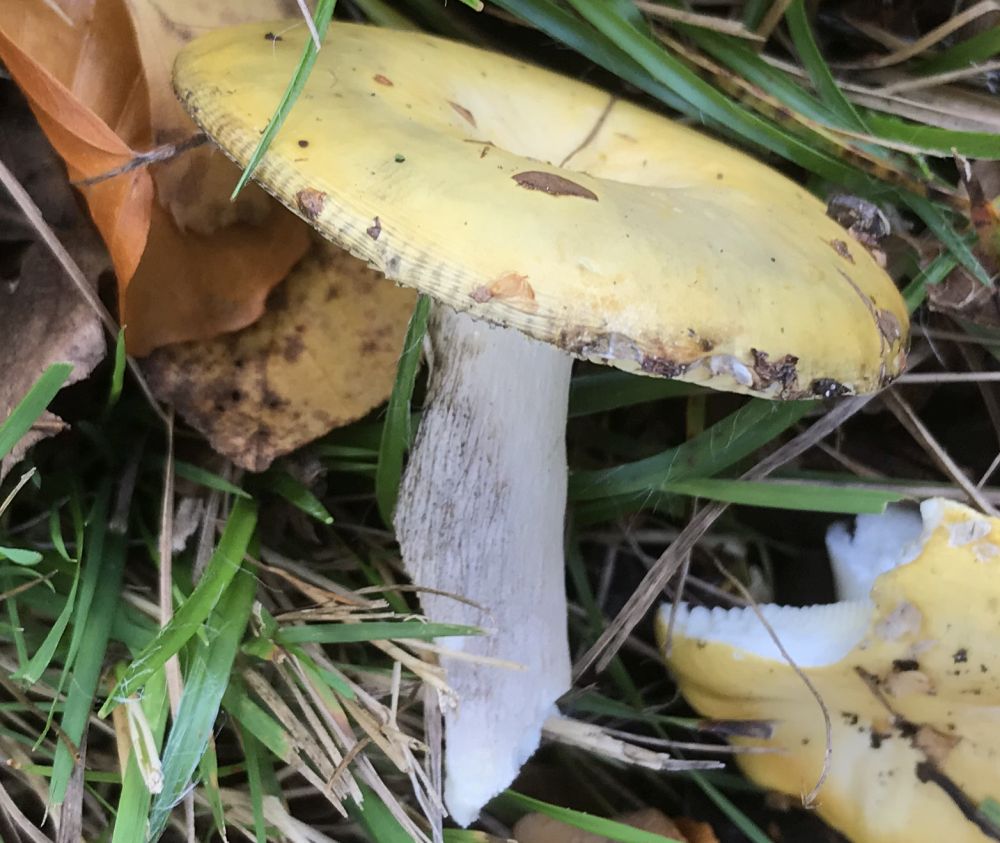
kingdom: Fungi
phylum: Basidiomycota
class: Agaricomycetes
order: Russulales
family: Russulaceae
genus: Russula
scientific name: Russula claroflava
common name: birke-skørhat
